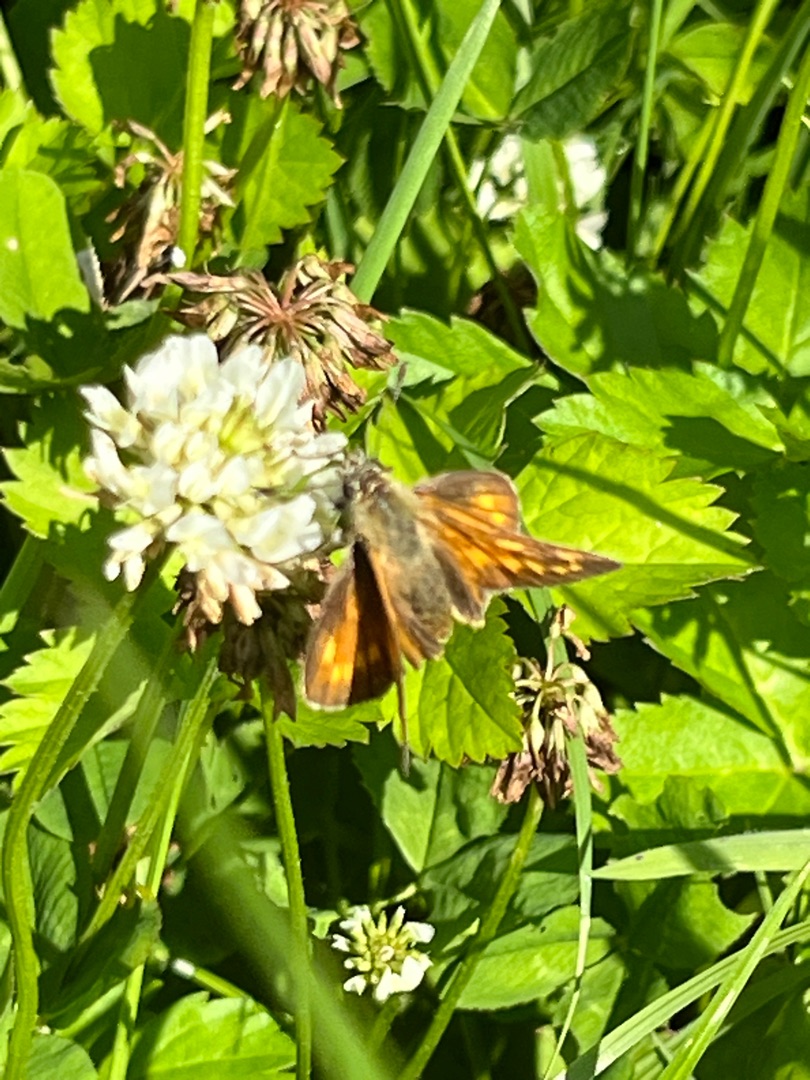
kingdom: Animalia
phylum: Arthropoda
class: Insecta
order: Lepidoptera
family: Hesperiidae
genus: Ochlodes
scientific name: Ochlodes venata
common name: Stor bredpande
